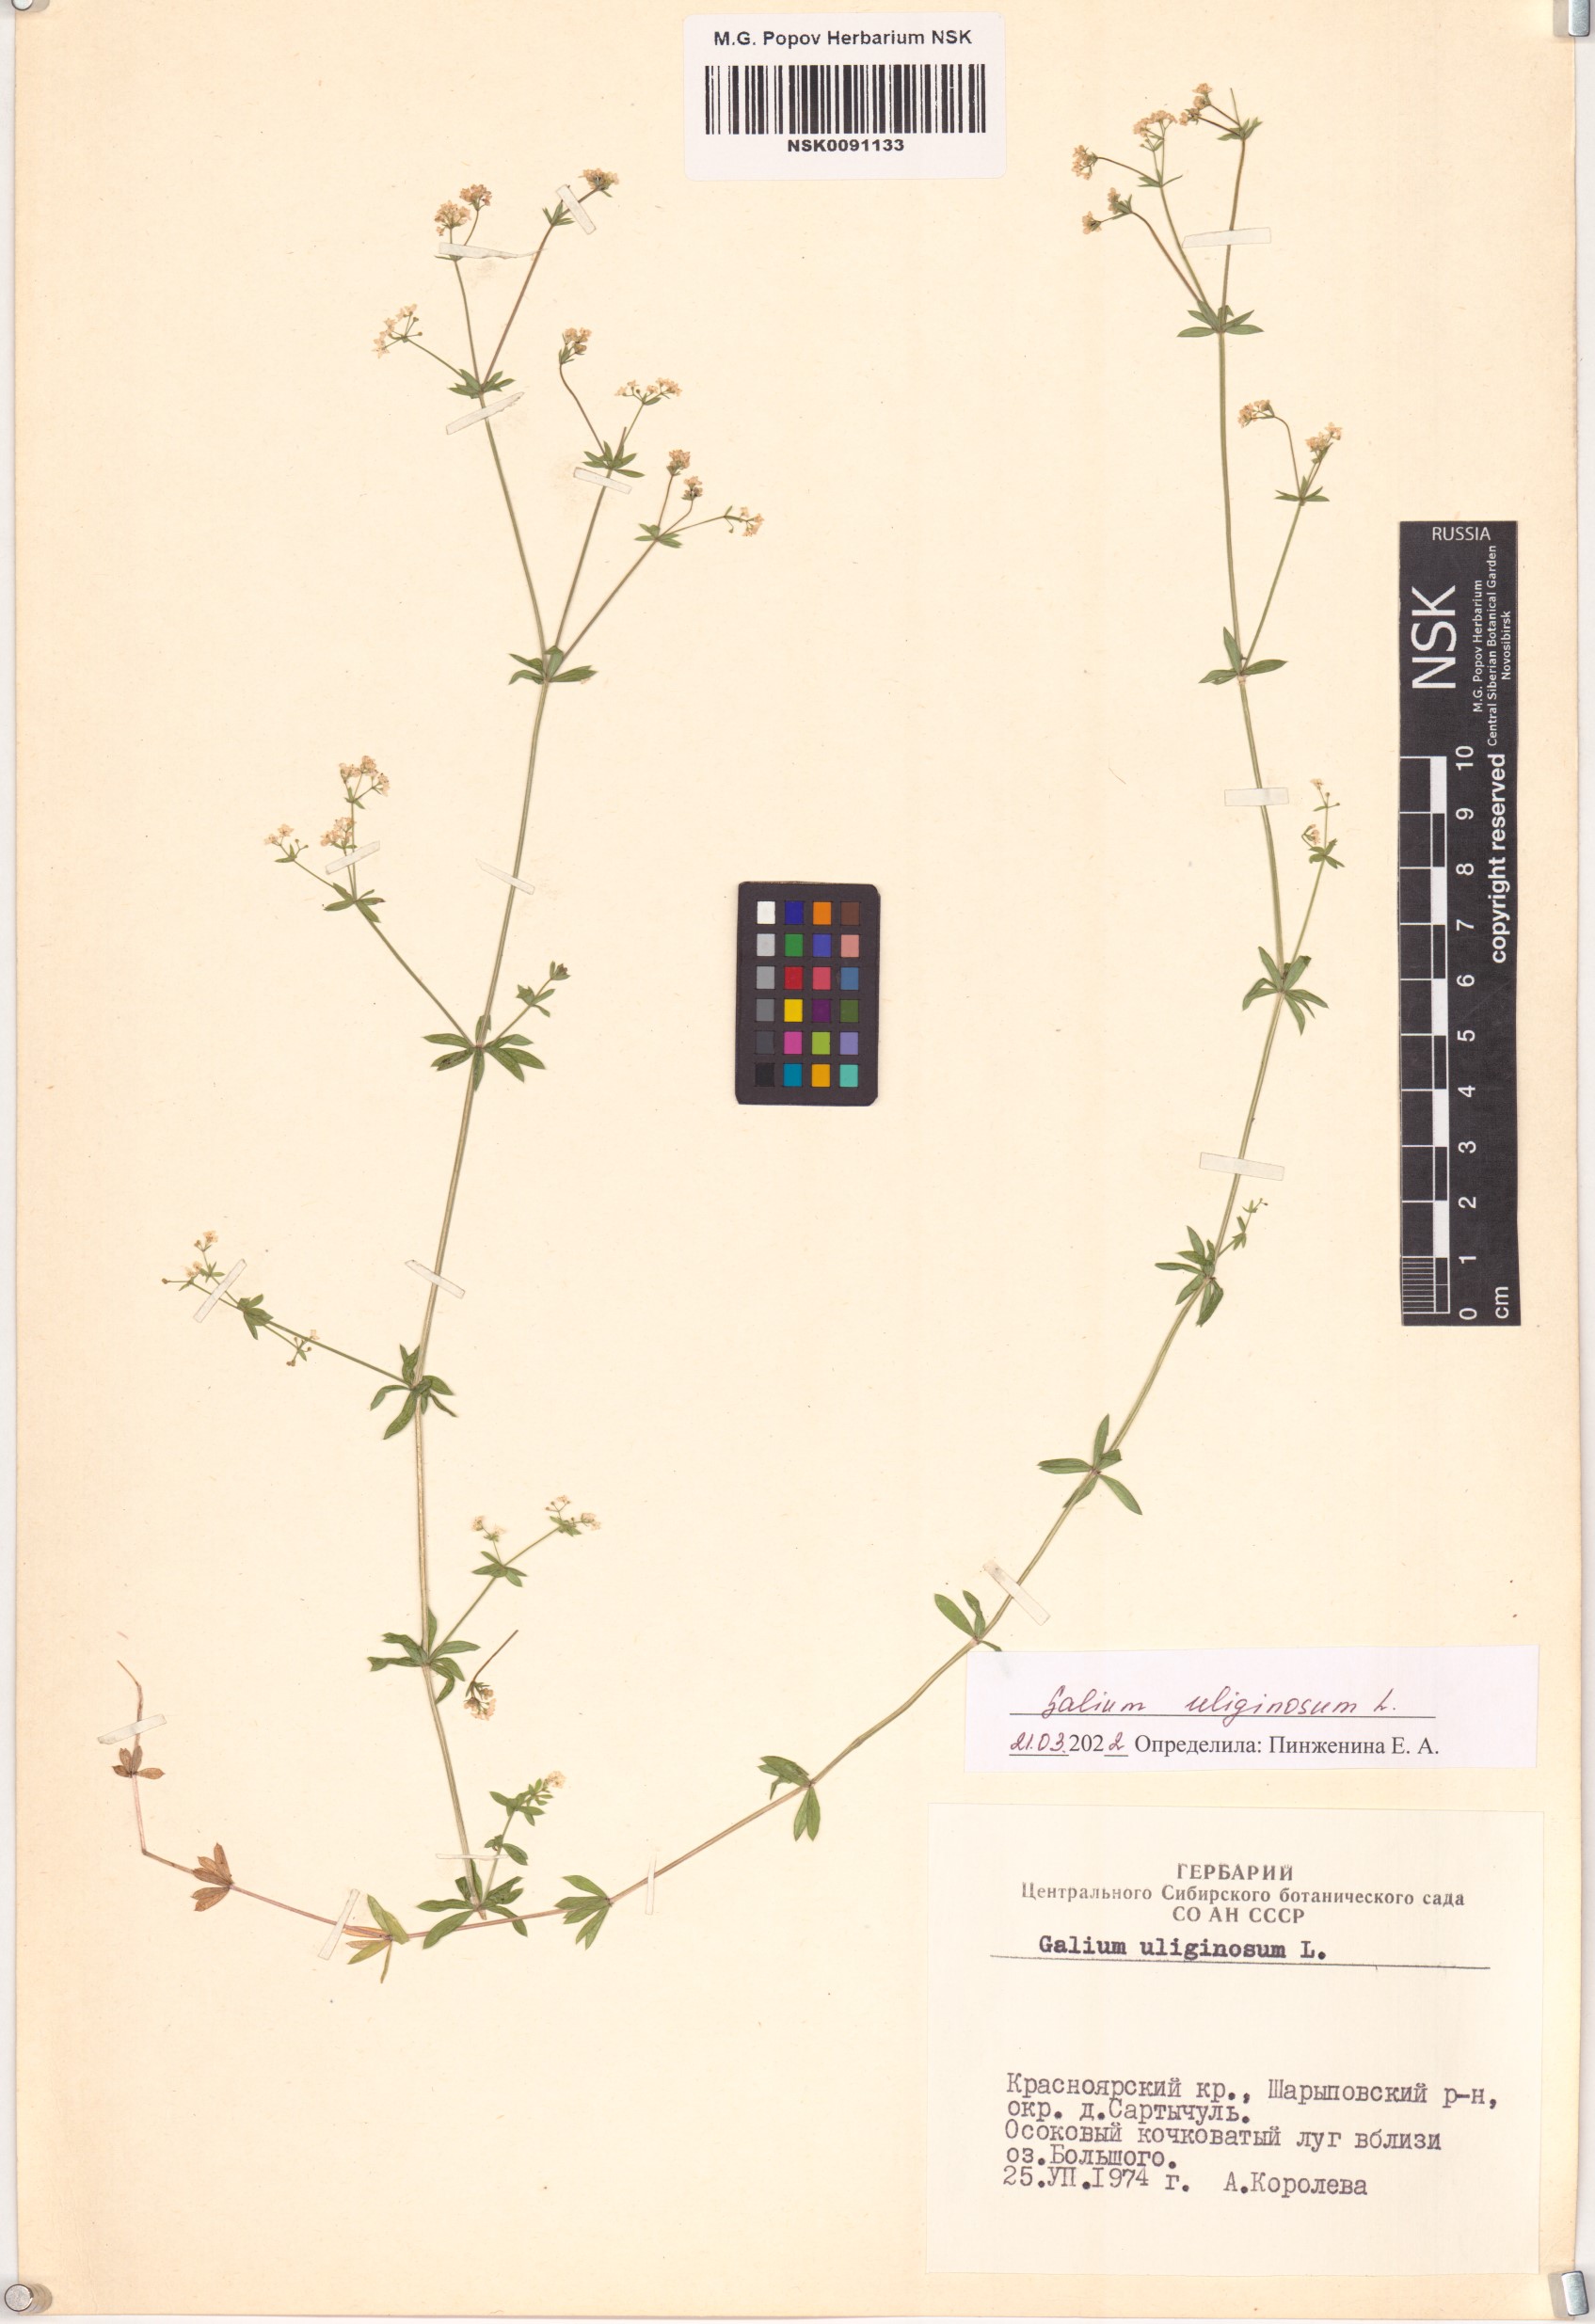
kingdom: Plantae
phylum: Tracheophyta
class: Magnoliopsida
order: Gentianales
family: Rubiaceae
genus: Galium
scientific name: Galium uliginosum
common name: Fen bedstraw
